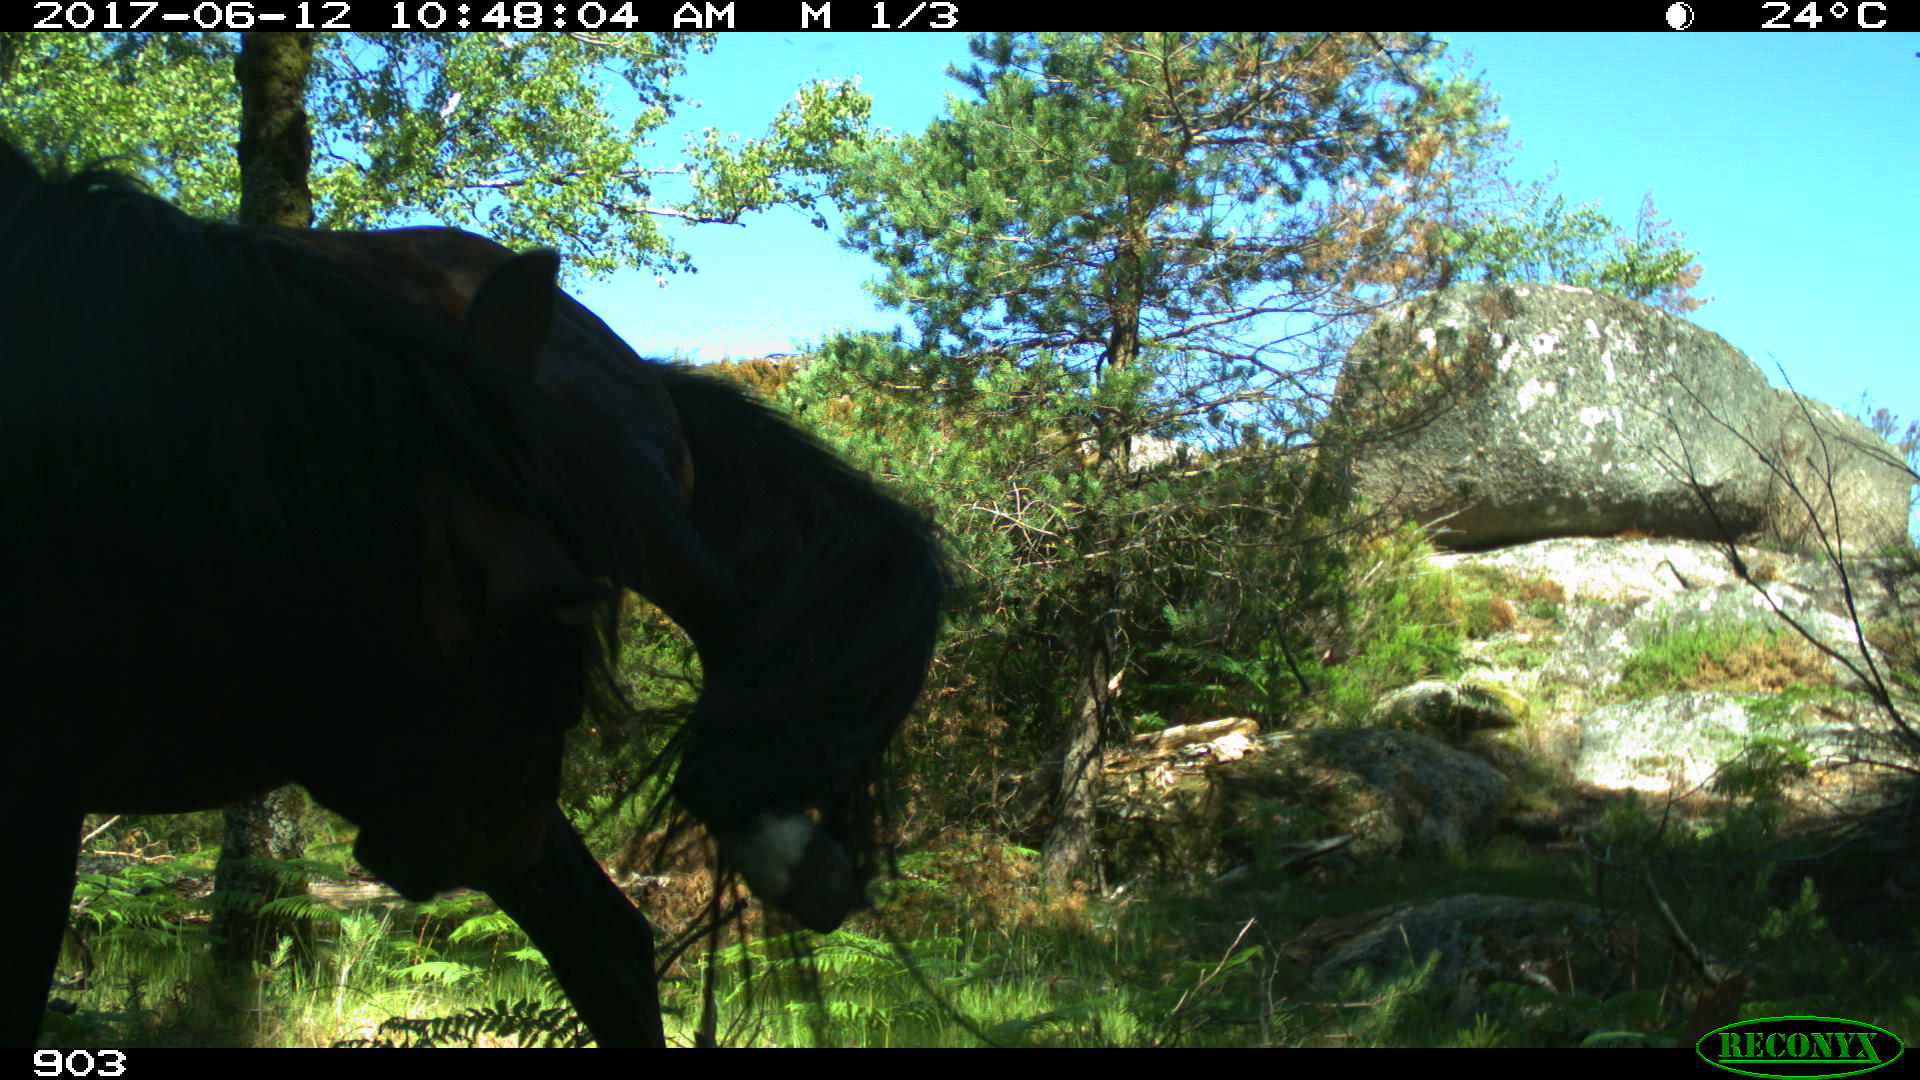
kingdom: Animalia
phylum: Chordata
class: Mammalia
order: Perissodactyla
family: Equidae
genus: Equus
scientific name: Equus caballus
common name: Horse
